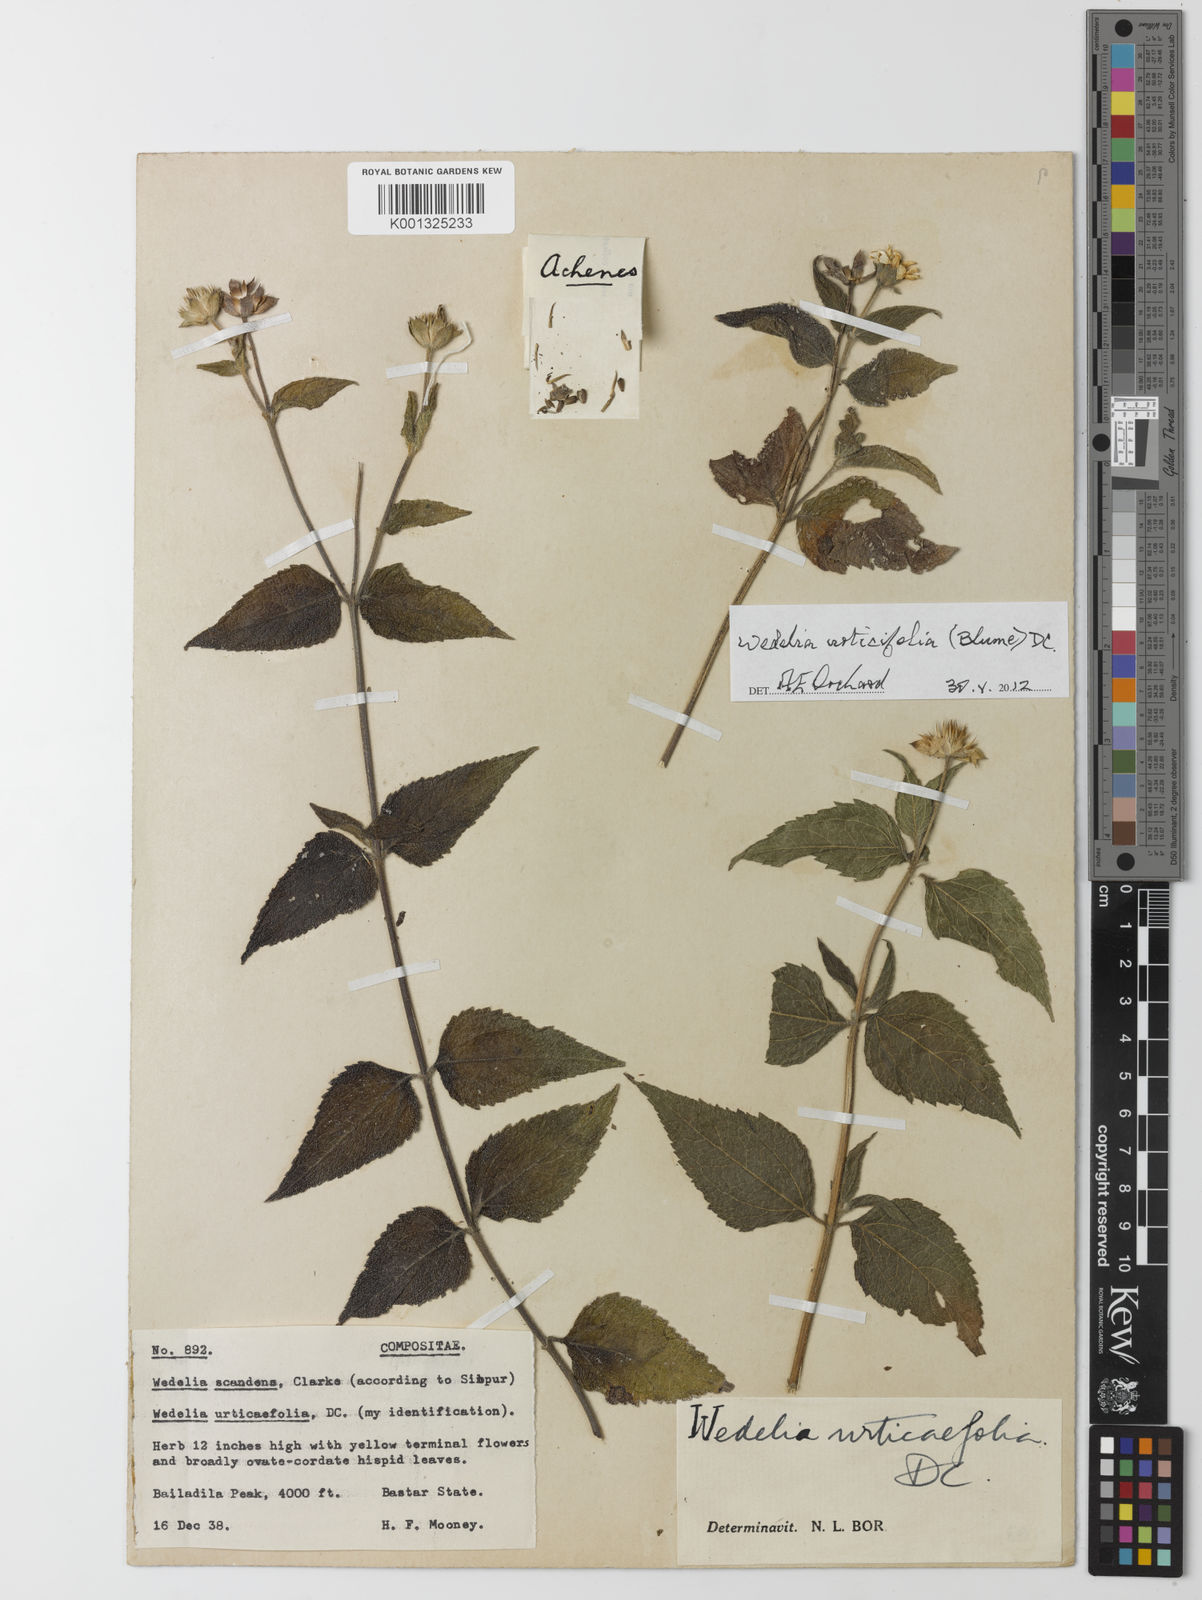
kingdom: Plantae
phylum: Tracheophyta
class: Magnoliopsida
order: Asterales
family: Asteraceae
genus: Lipoblepharis
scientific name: Lipoblepharis urticifolia
